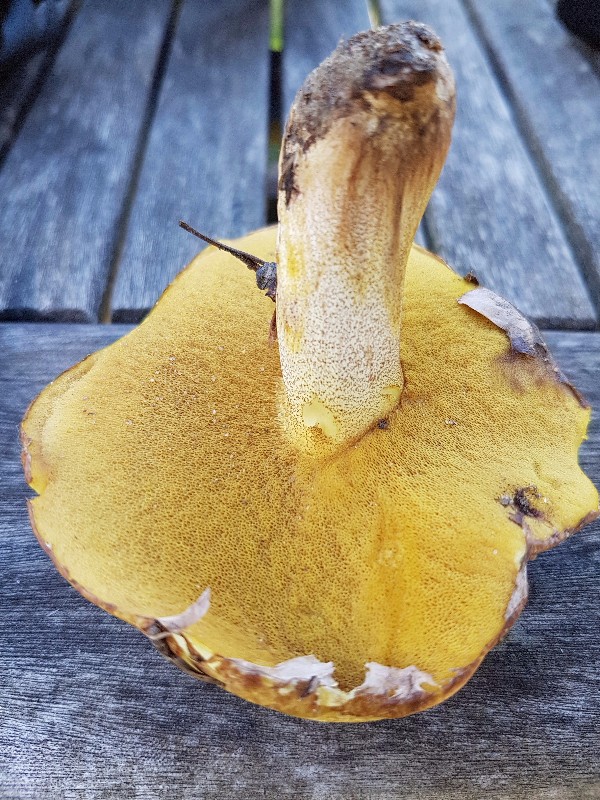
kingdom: Fungi
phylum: Basidiomycota
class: Agaricomycetes
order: Boletales
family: Suillaceae
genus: Suillus
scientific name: Suillus luteus
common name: brungul slimrørhat
